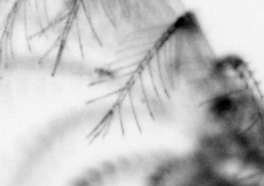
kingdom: Animalia
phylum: Chordata
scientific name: Chordata
